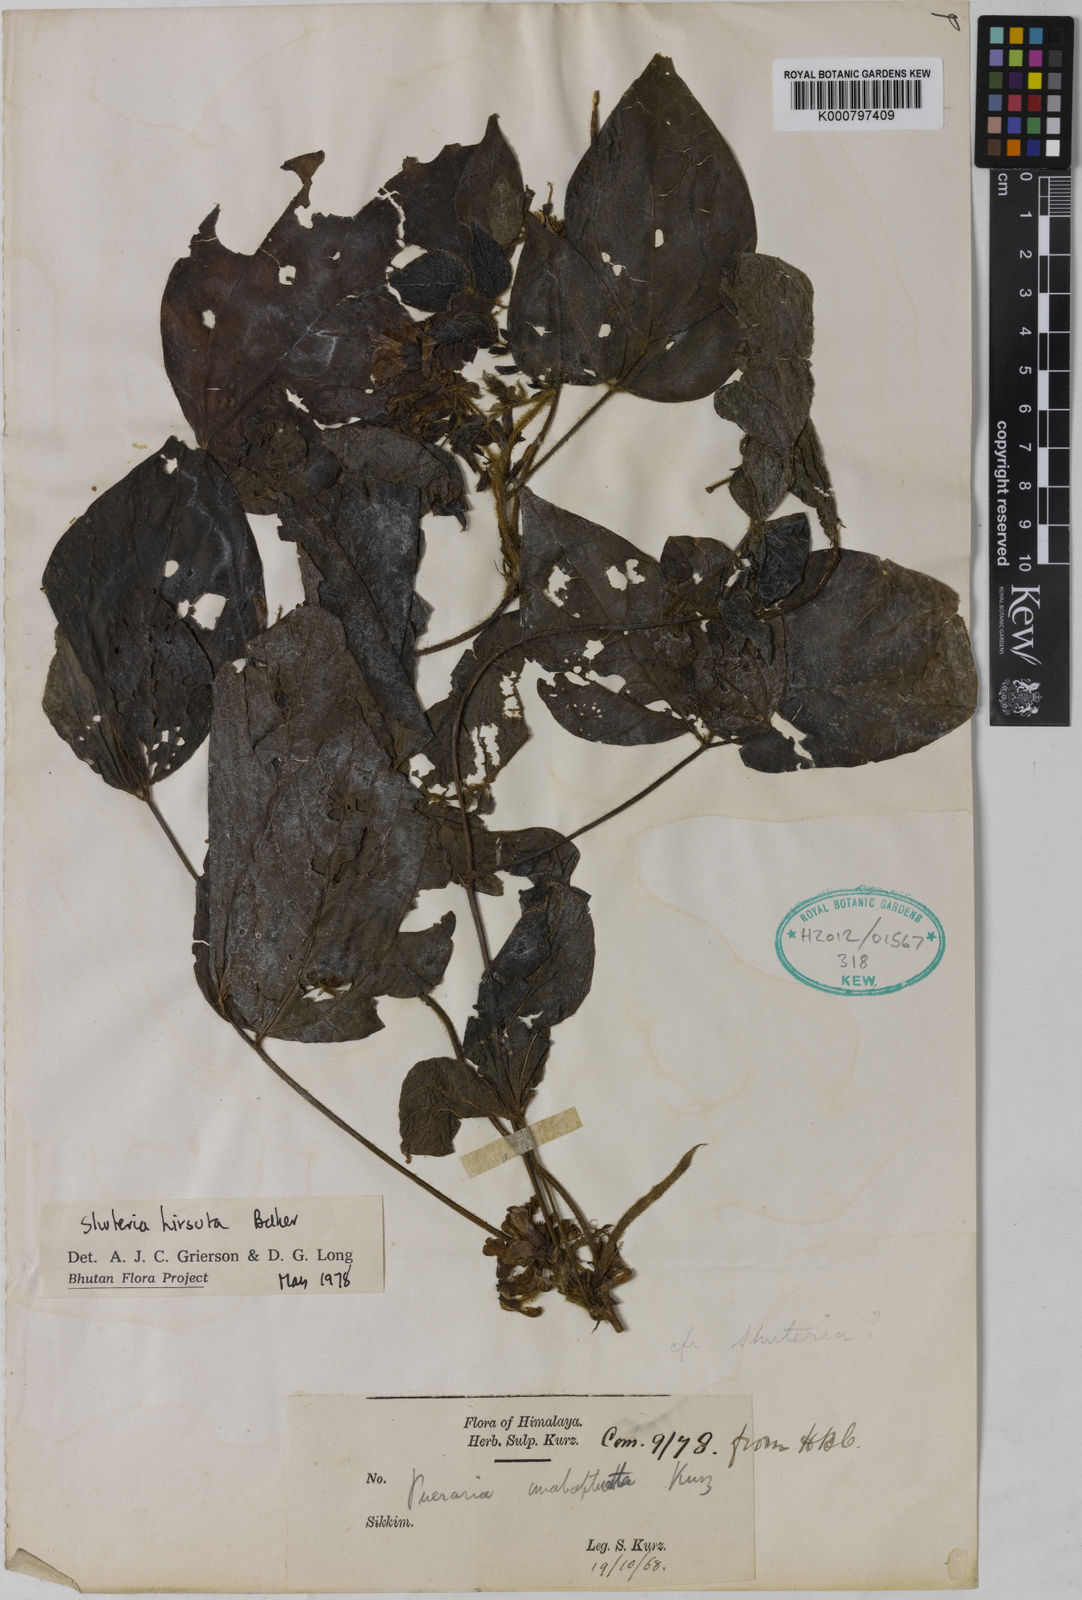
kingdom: Plantae
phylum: Tracheophyta
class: Magnoliopsida
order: Fabales
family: Fabaceae
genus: Harashuteria
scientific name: Harashuteria hirsuta
